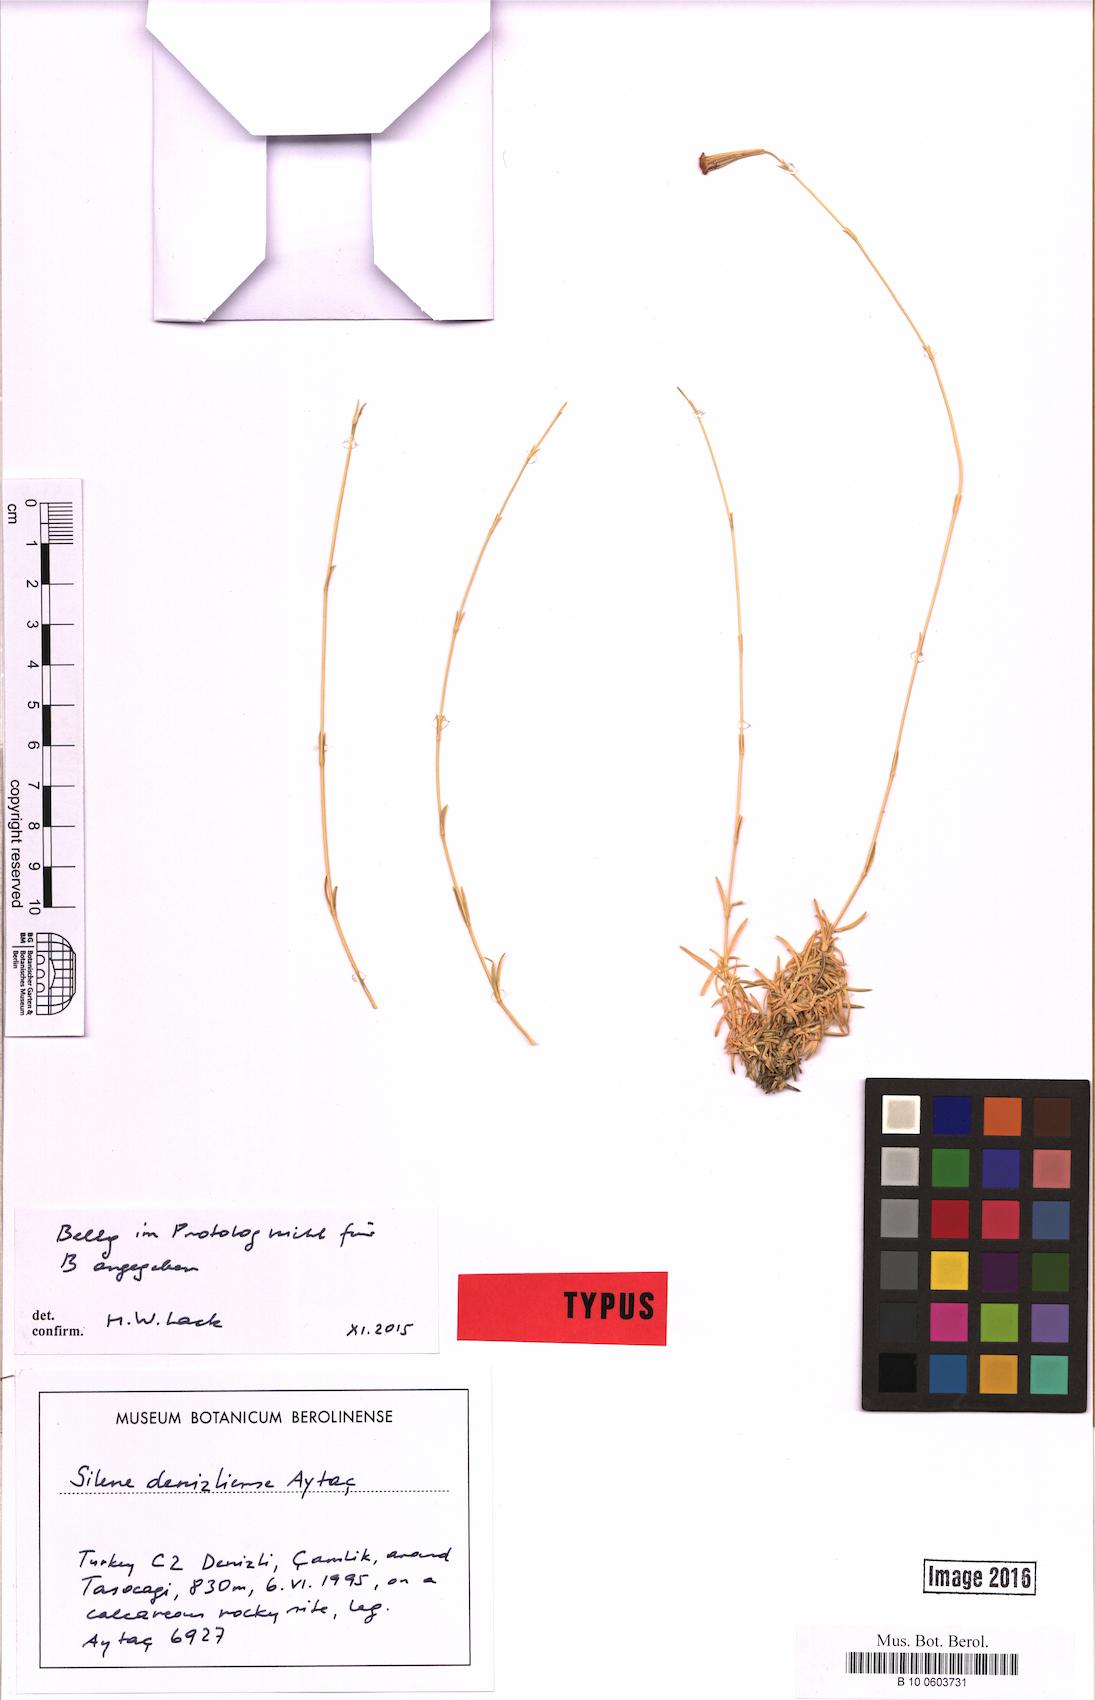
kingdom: Plantae
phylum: Tracheophyta
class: Magnoliopsida
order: Caryophyllales
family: Caryophyllaceae
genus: Silene
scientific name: Silene denizliensis
